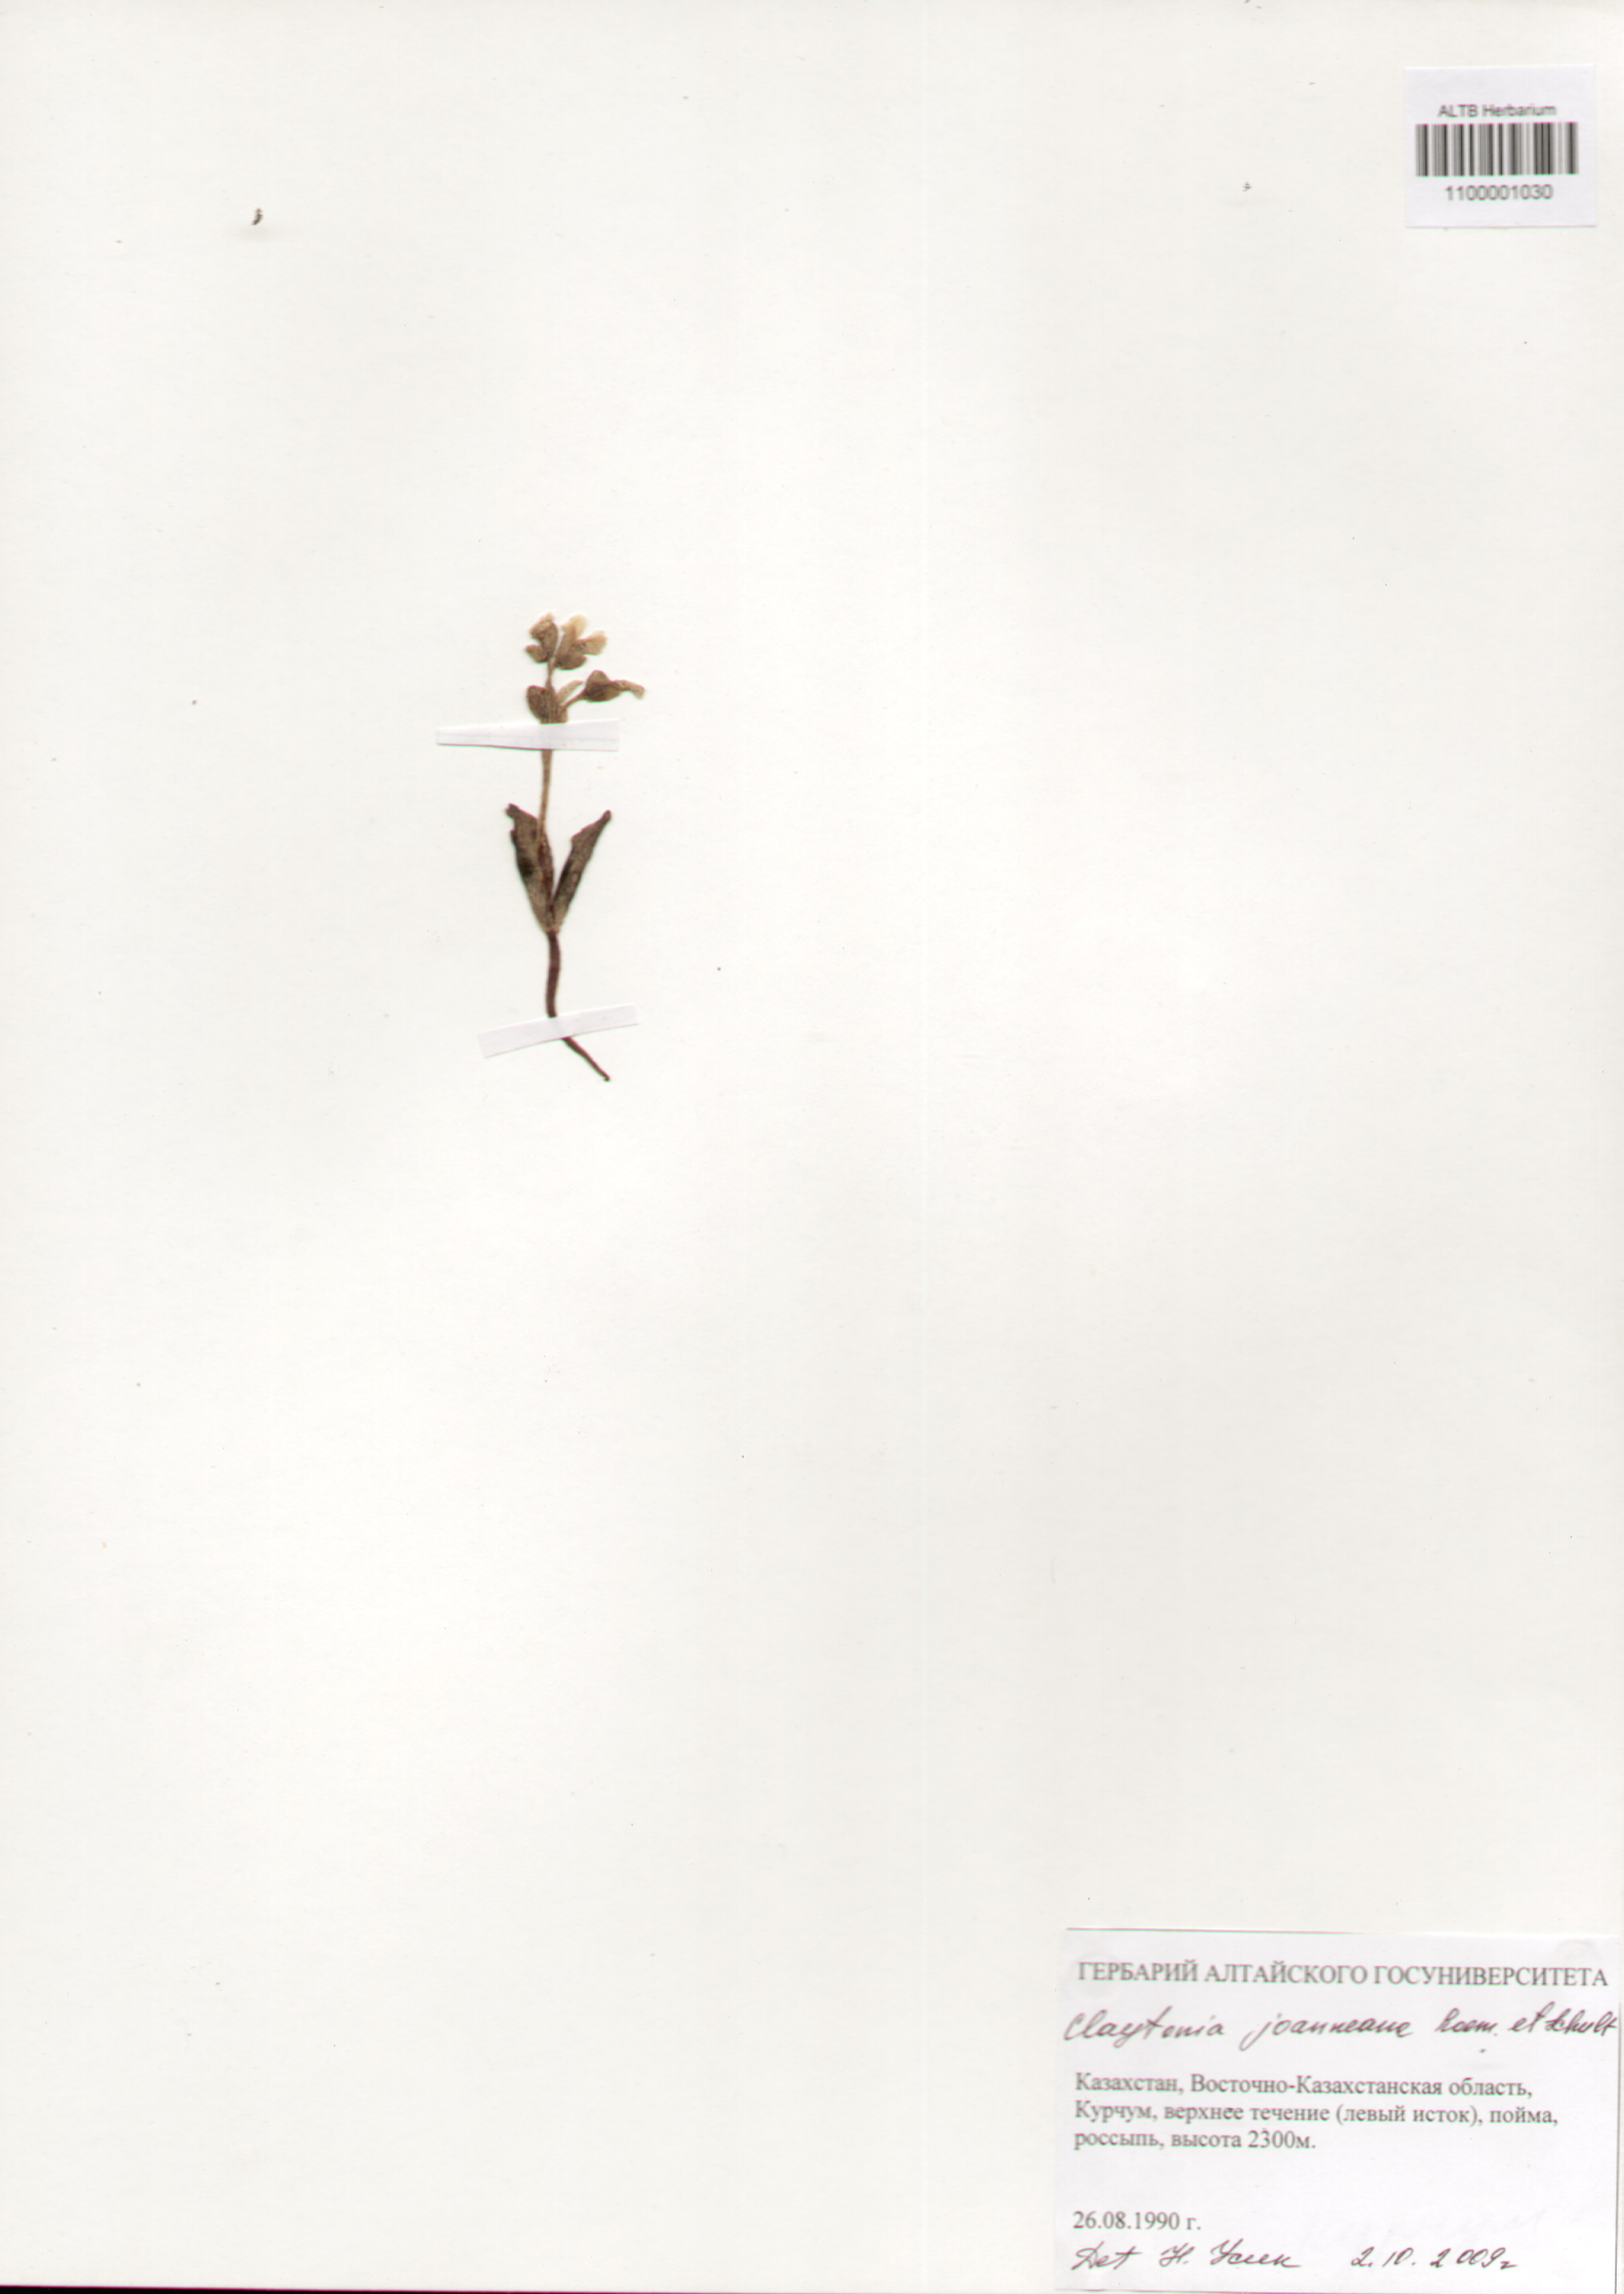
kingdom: Plantae
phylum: Tracheophyta
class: Magnoliopsida
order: Caryophyllales
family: Montiaceae
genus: Claytonia
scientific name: Claytonia joanneana
